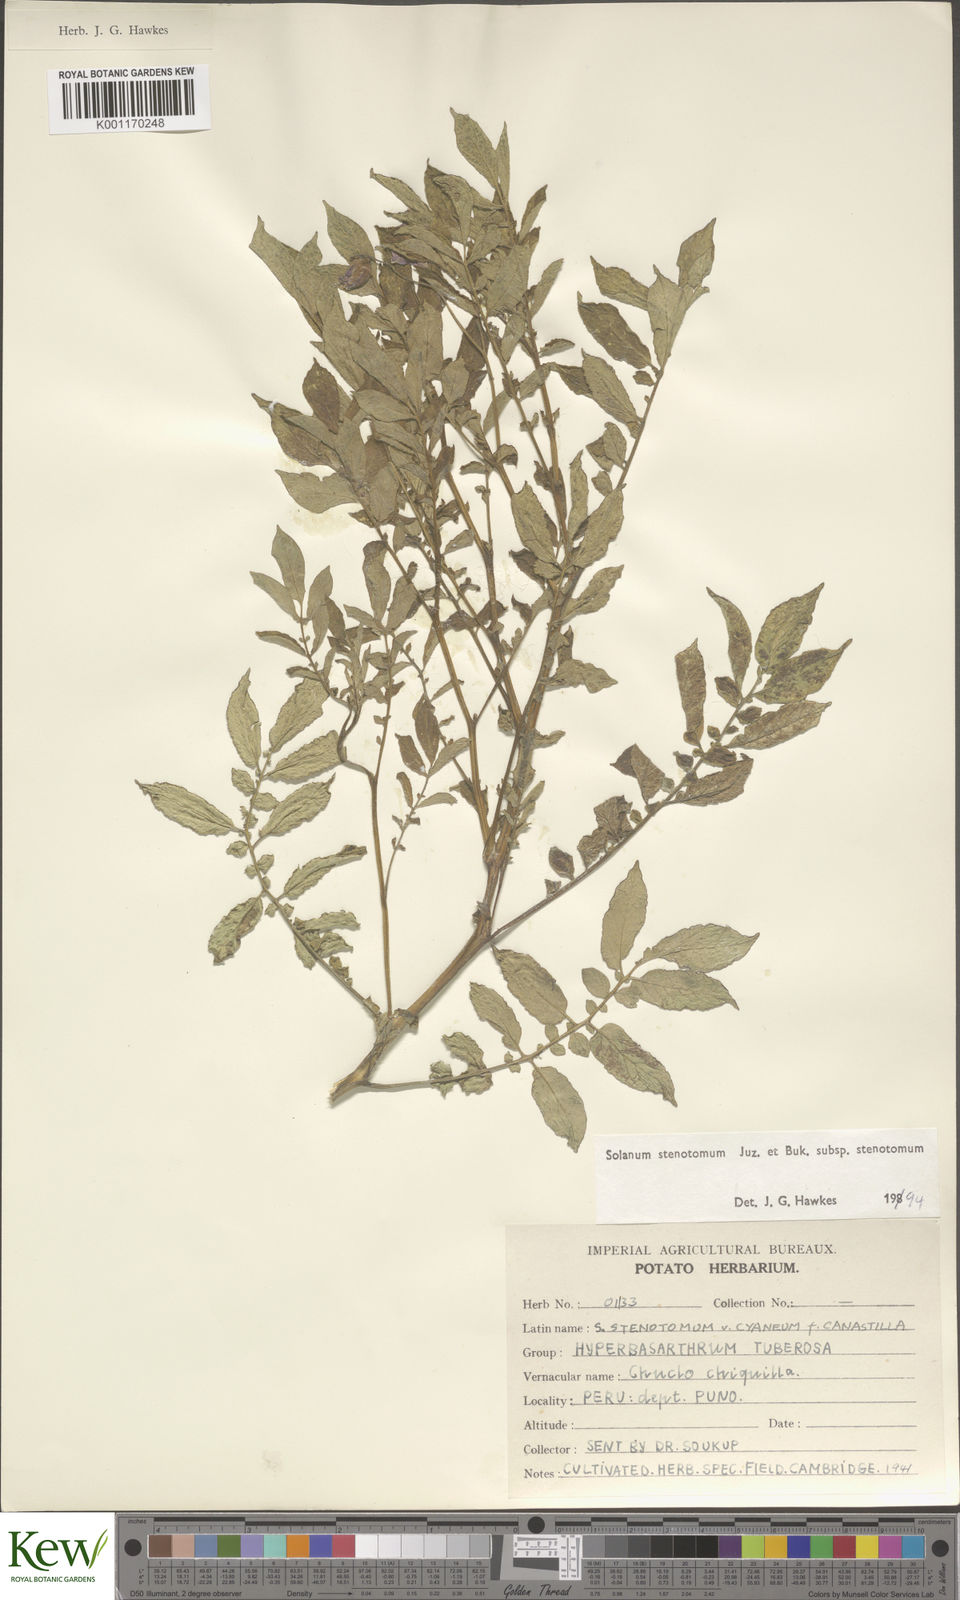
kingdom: Plantae
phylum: Tracheophyta
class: Magnoliopsida
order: Solanales
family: Solanaceae
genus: Solanum
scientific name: Solanum tuberosum
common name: Potato
